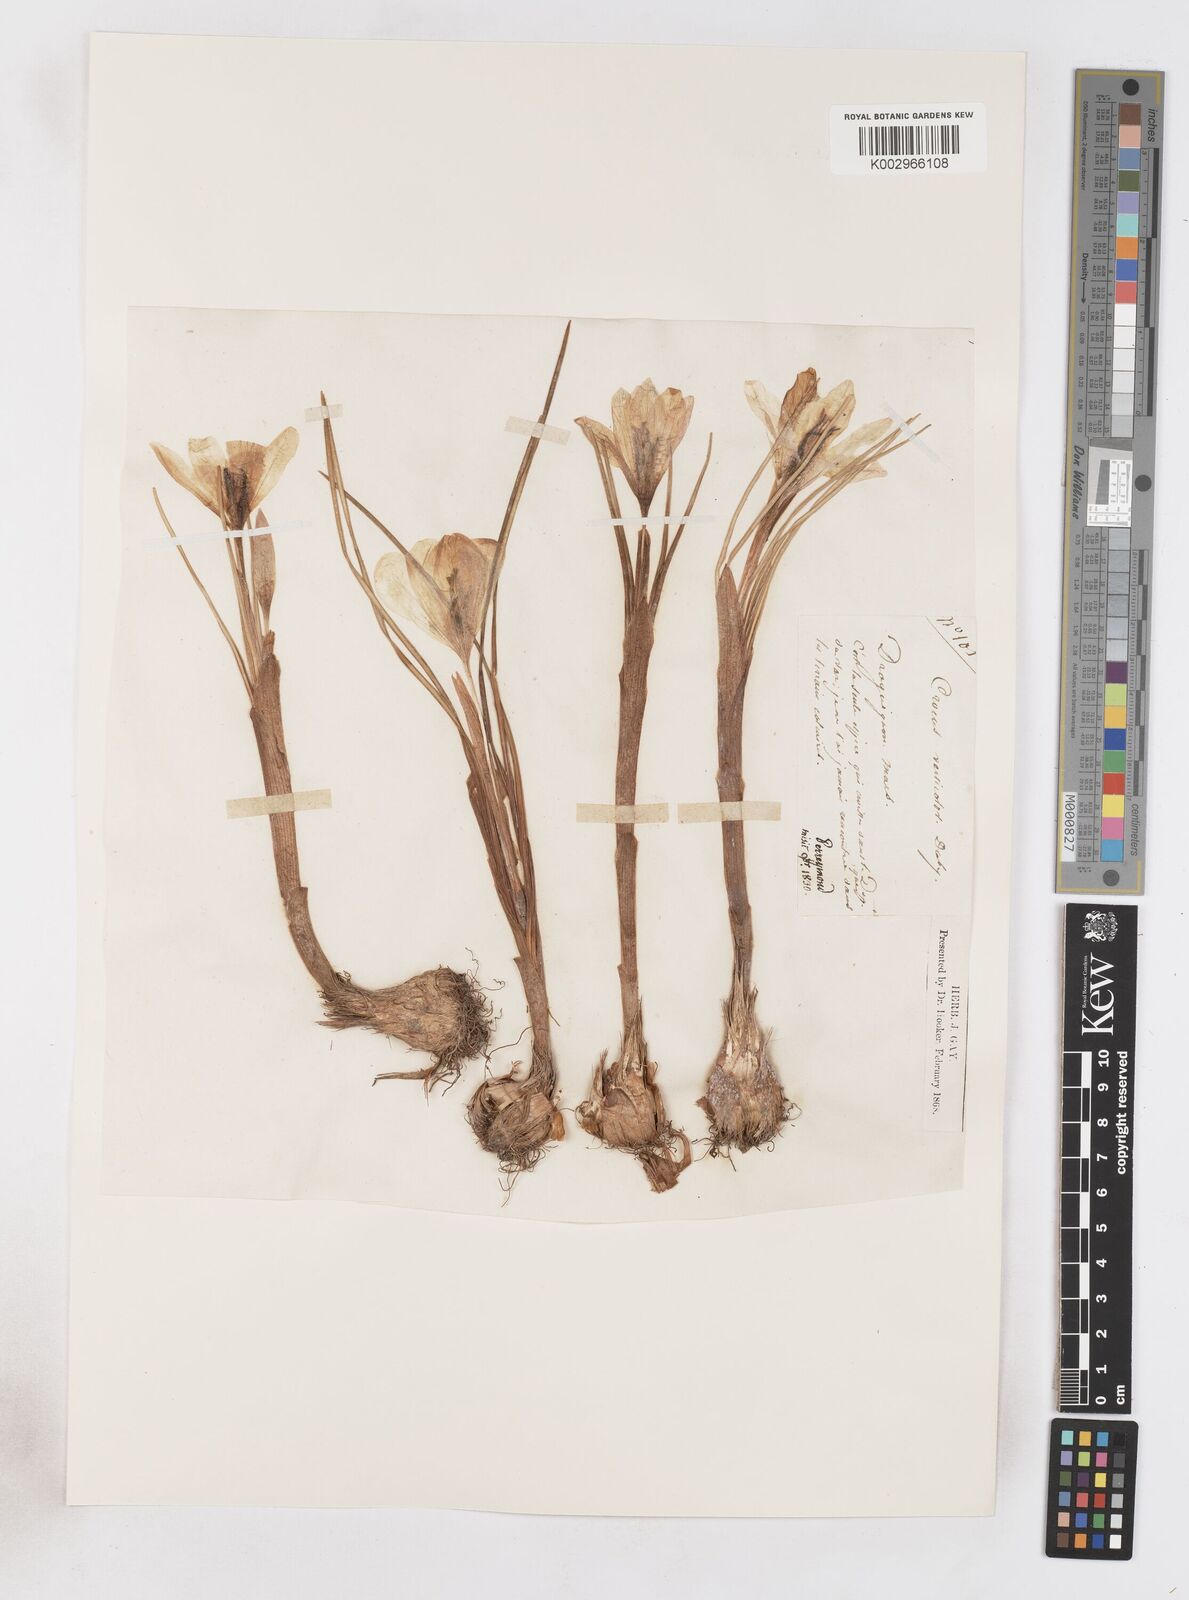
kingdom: Plantae
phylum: Tracheophyta
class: Liliopsida
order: Asparagales
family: Iridaceae
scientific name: Iridaceae
